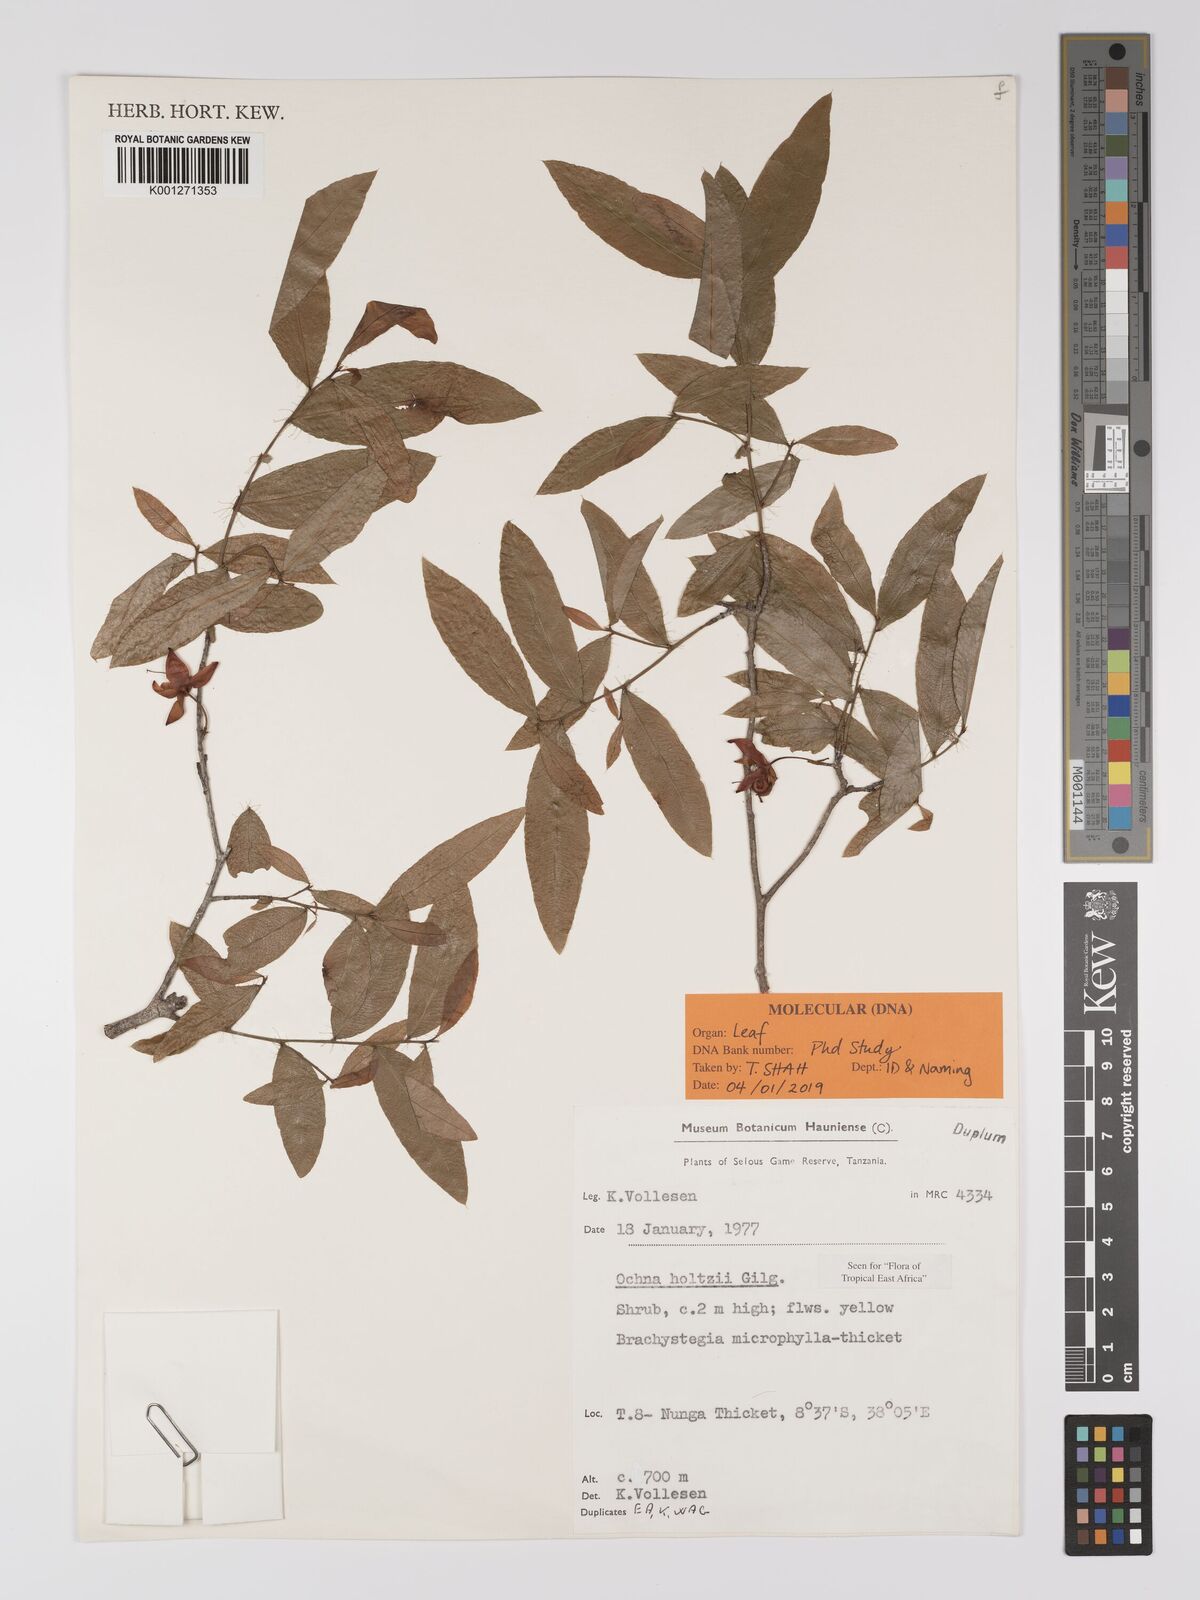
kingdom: Plantae
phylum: Tracheophyta
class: Magnoliopsida
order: Malpighiales
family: Ochnaceae
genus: Ochna
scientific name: Ochna holtzii
